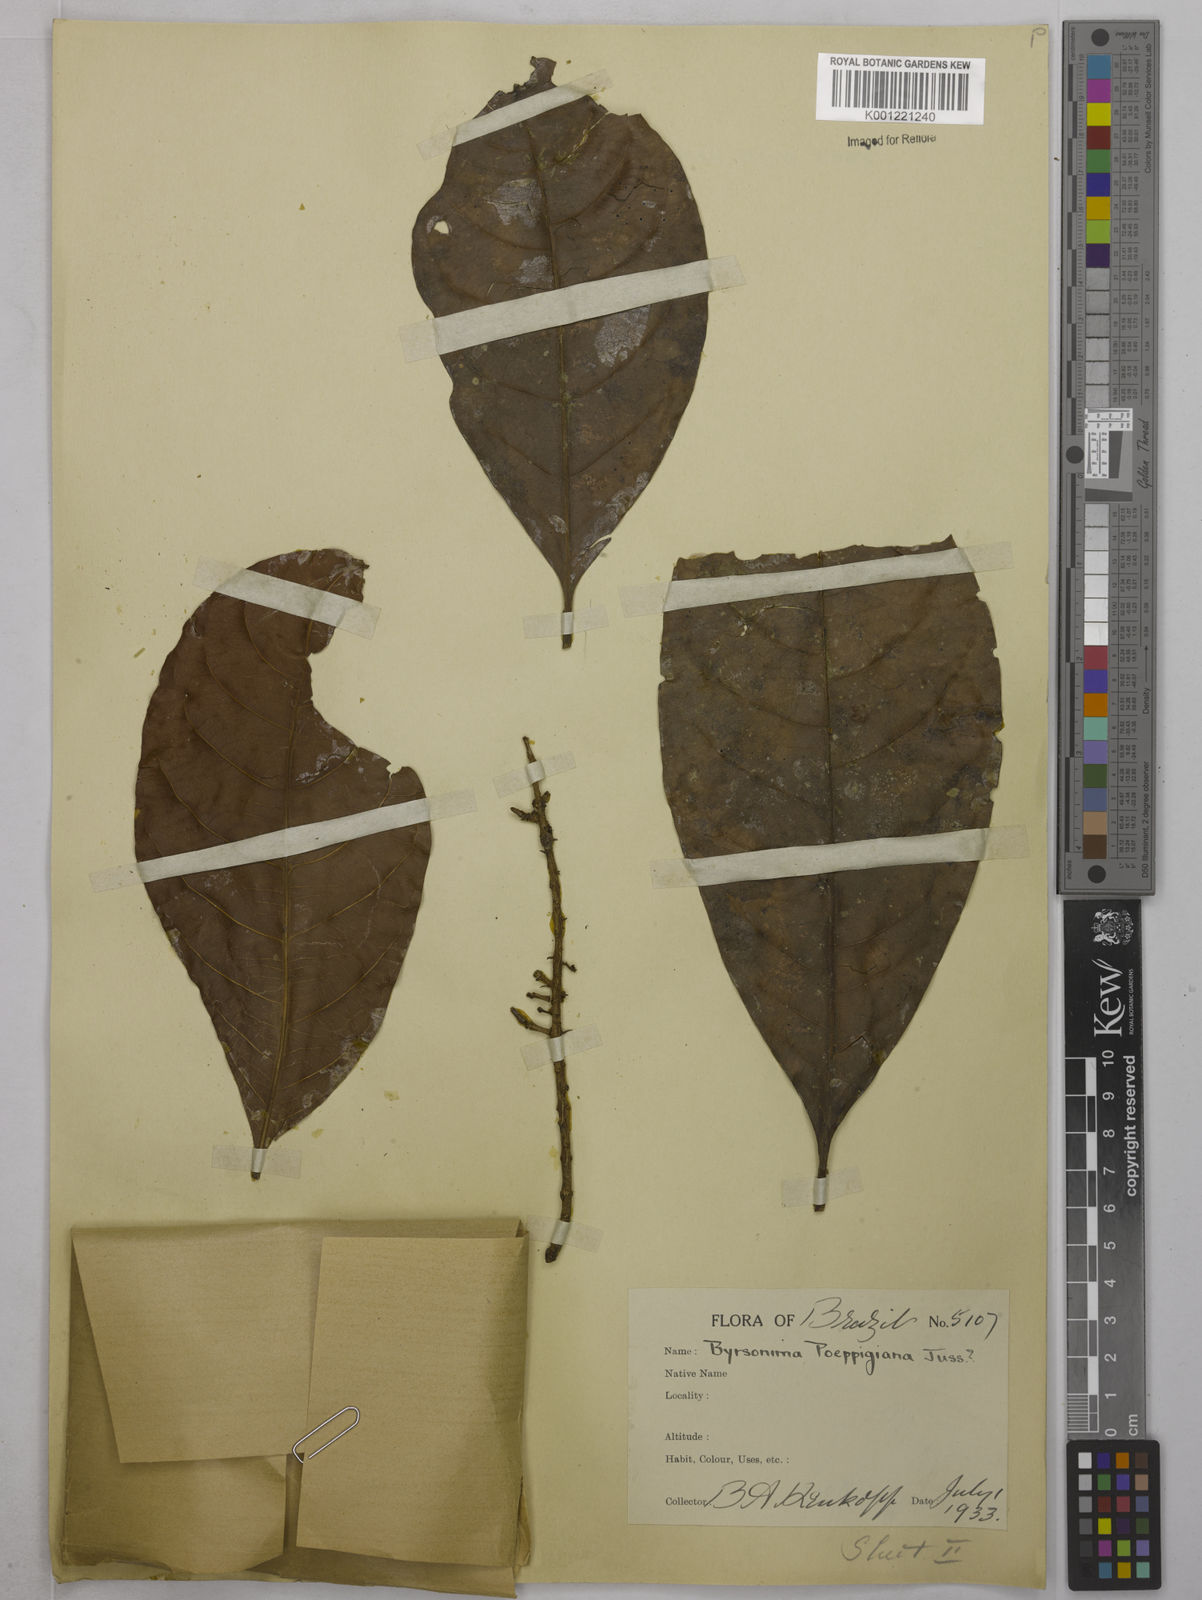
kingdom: Plantae
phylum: Tracheophyta
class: Magnoliopsida
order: Malpighiales
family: Malpighiaceae
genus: Byrsonima
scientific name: Byrsonima poeppigiana
